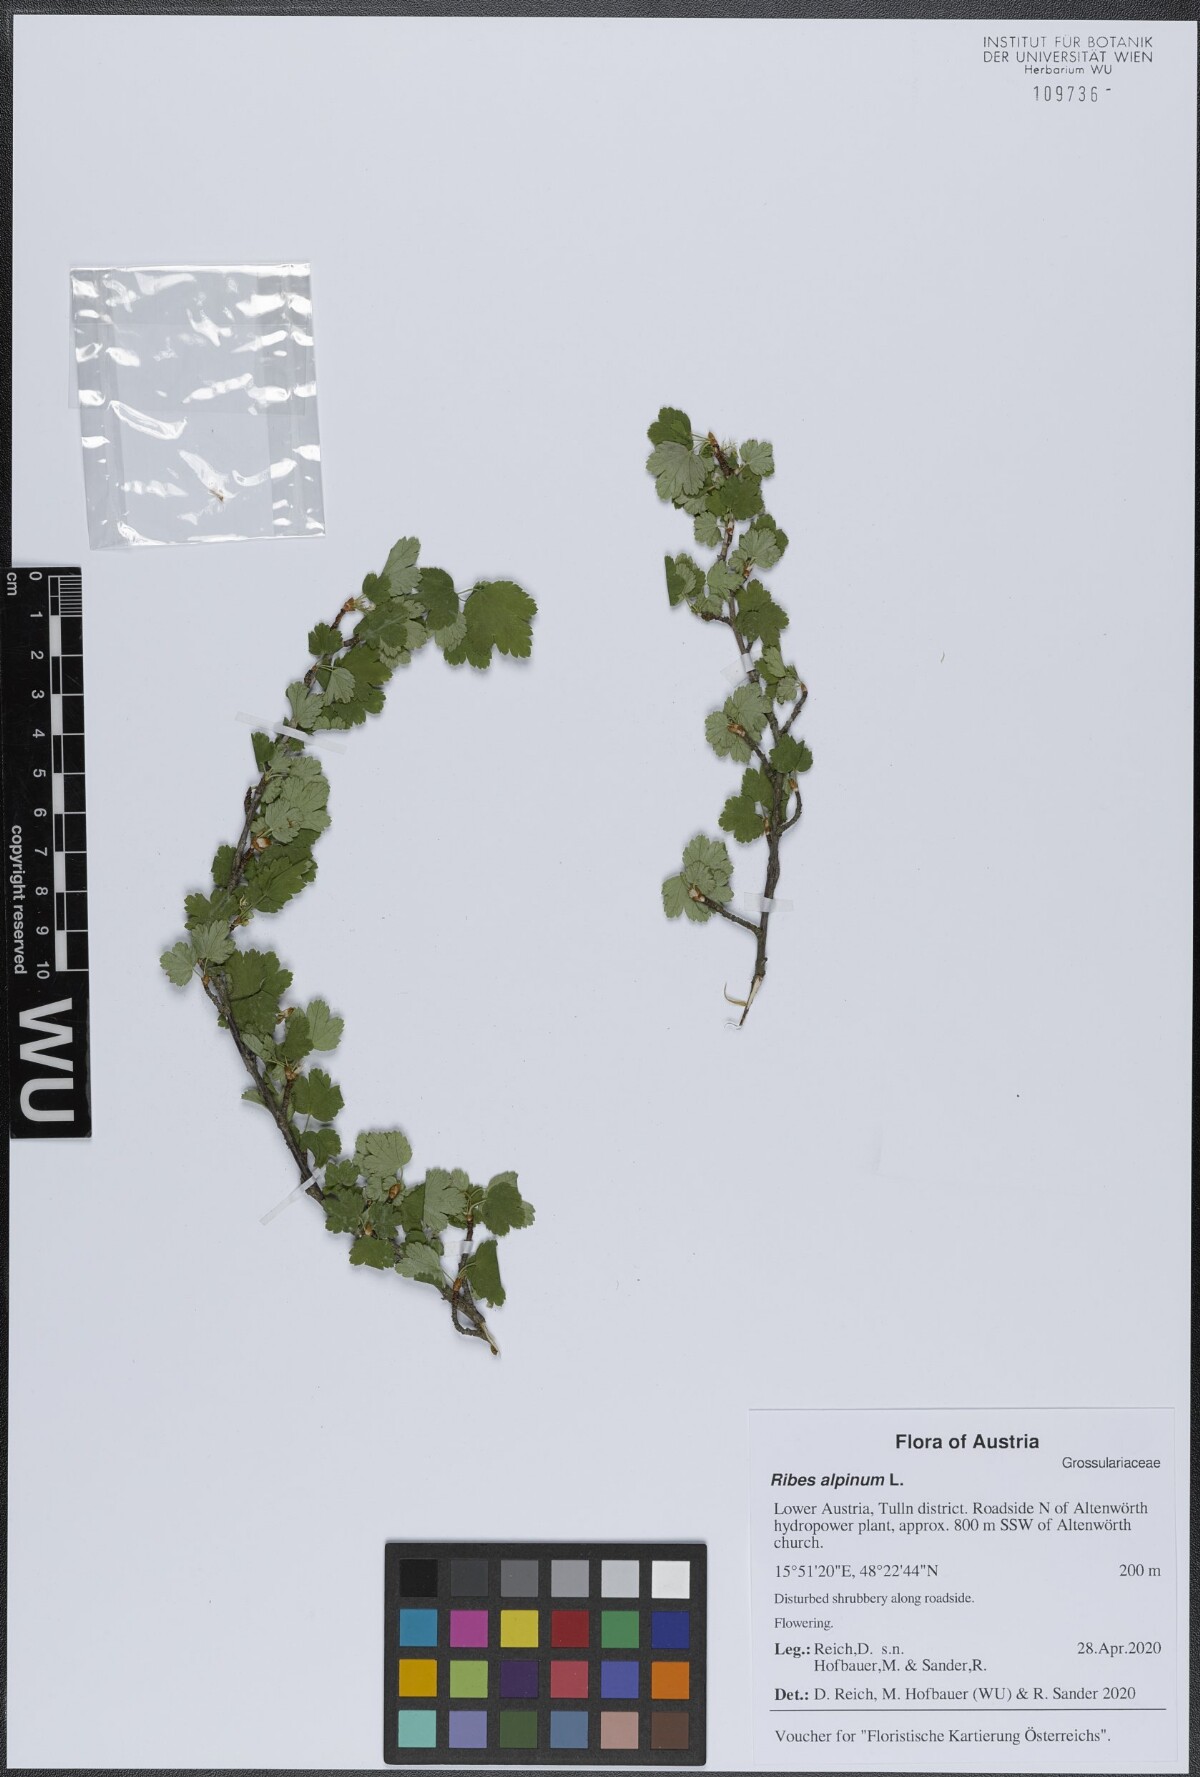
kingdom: Plantae
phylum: Tracheophyta
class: Magnoliopsida
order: Saxifragales
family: Grossulariaceae
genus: Ribes
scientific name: Ribes alpinum
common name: Alpine currant
